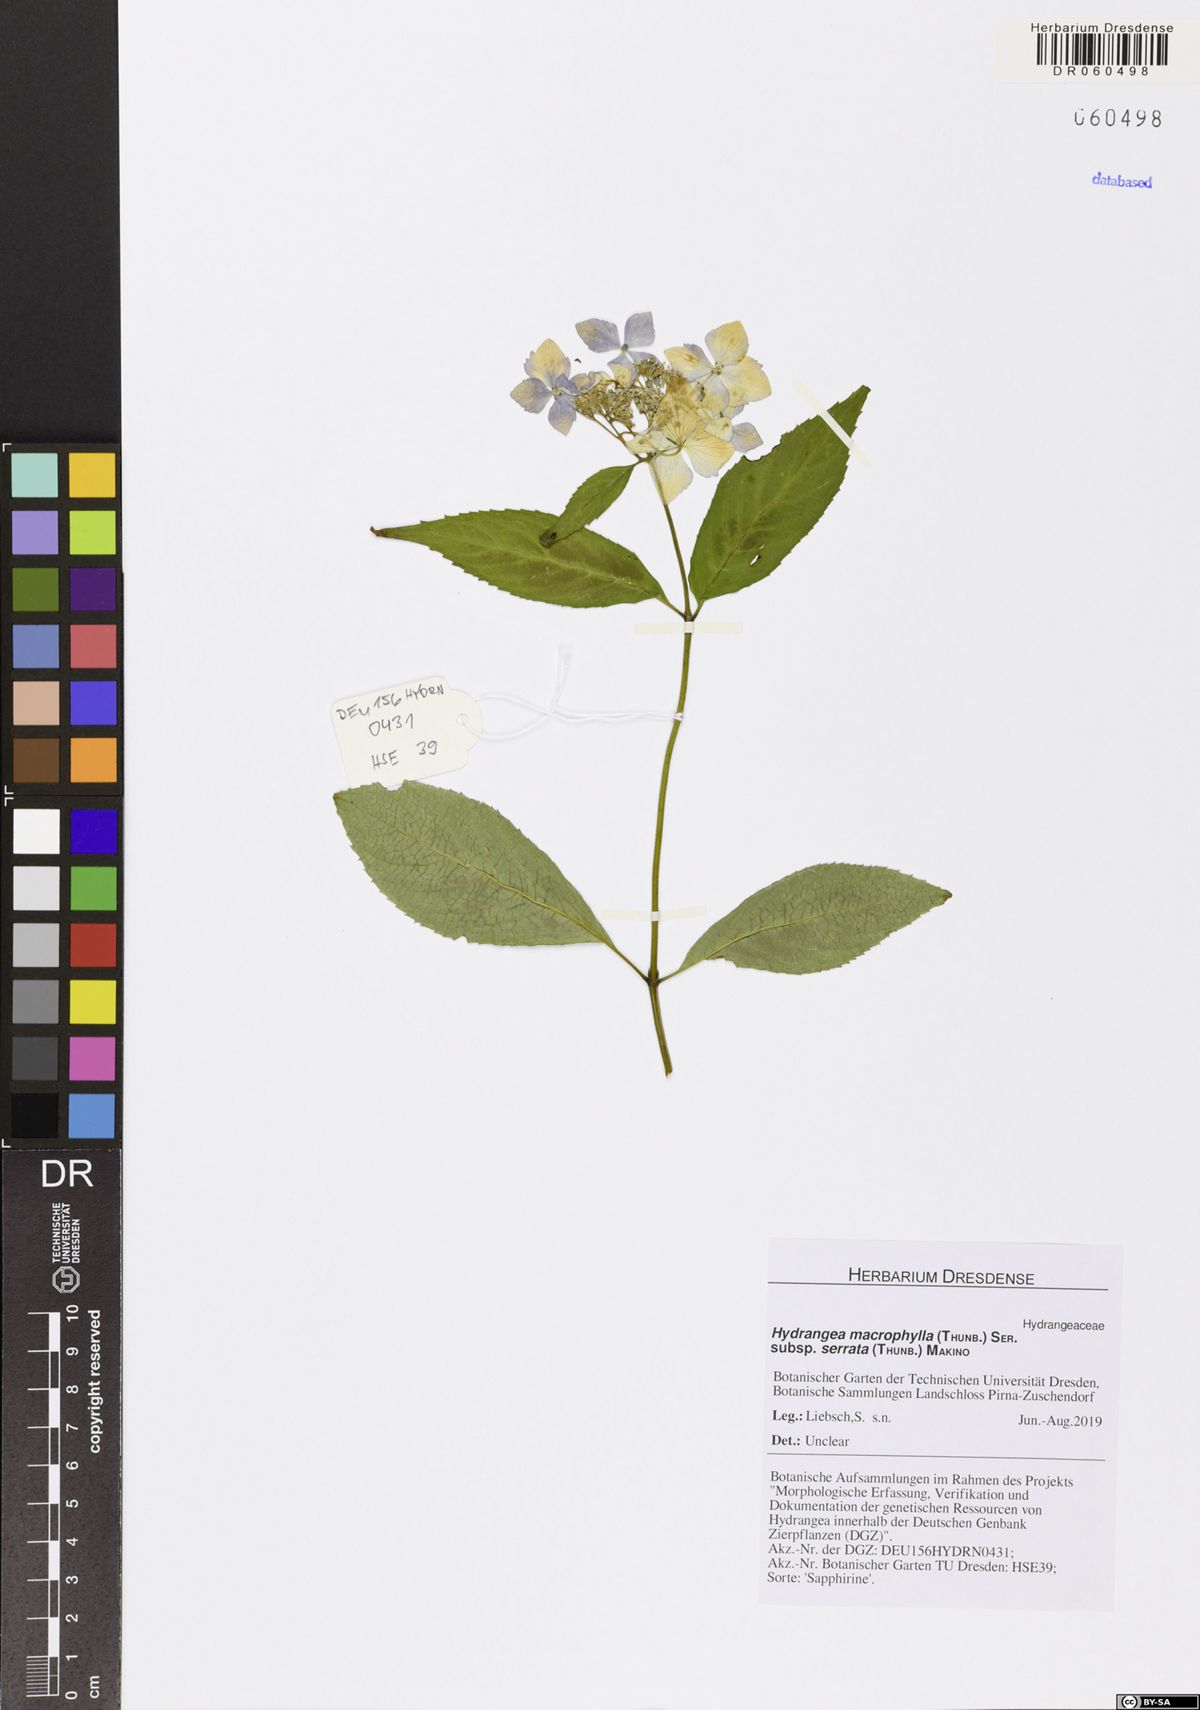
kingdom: Plantae
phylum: Tracheophyta
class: Magnoliopsida
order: Cornales
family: Hydrangeaceae
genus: Hydrangea
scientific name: Hydrangea serrata
